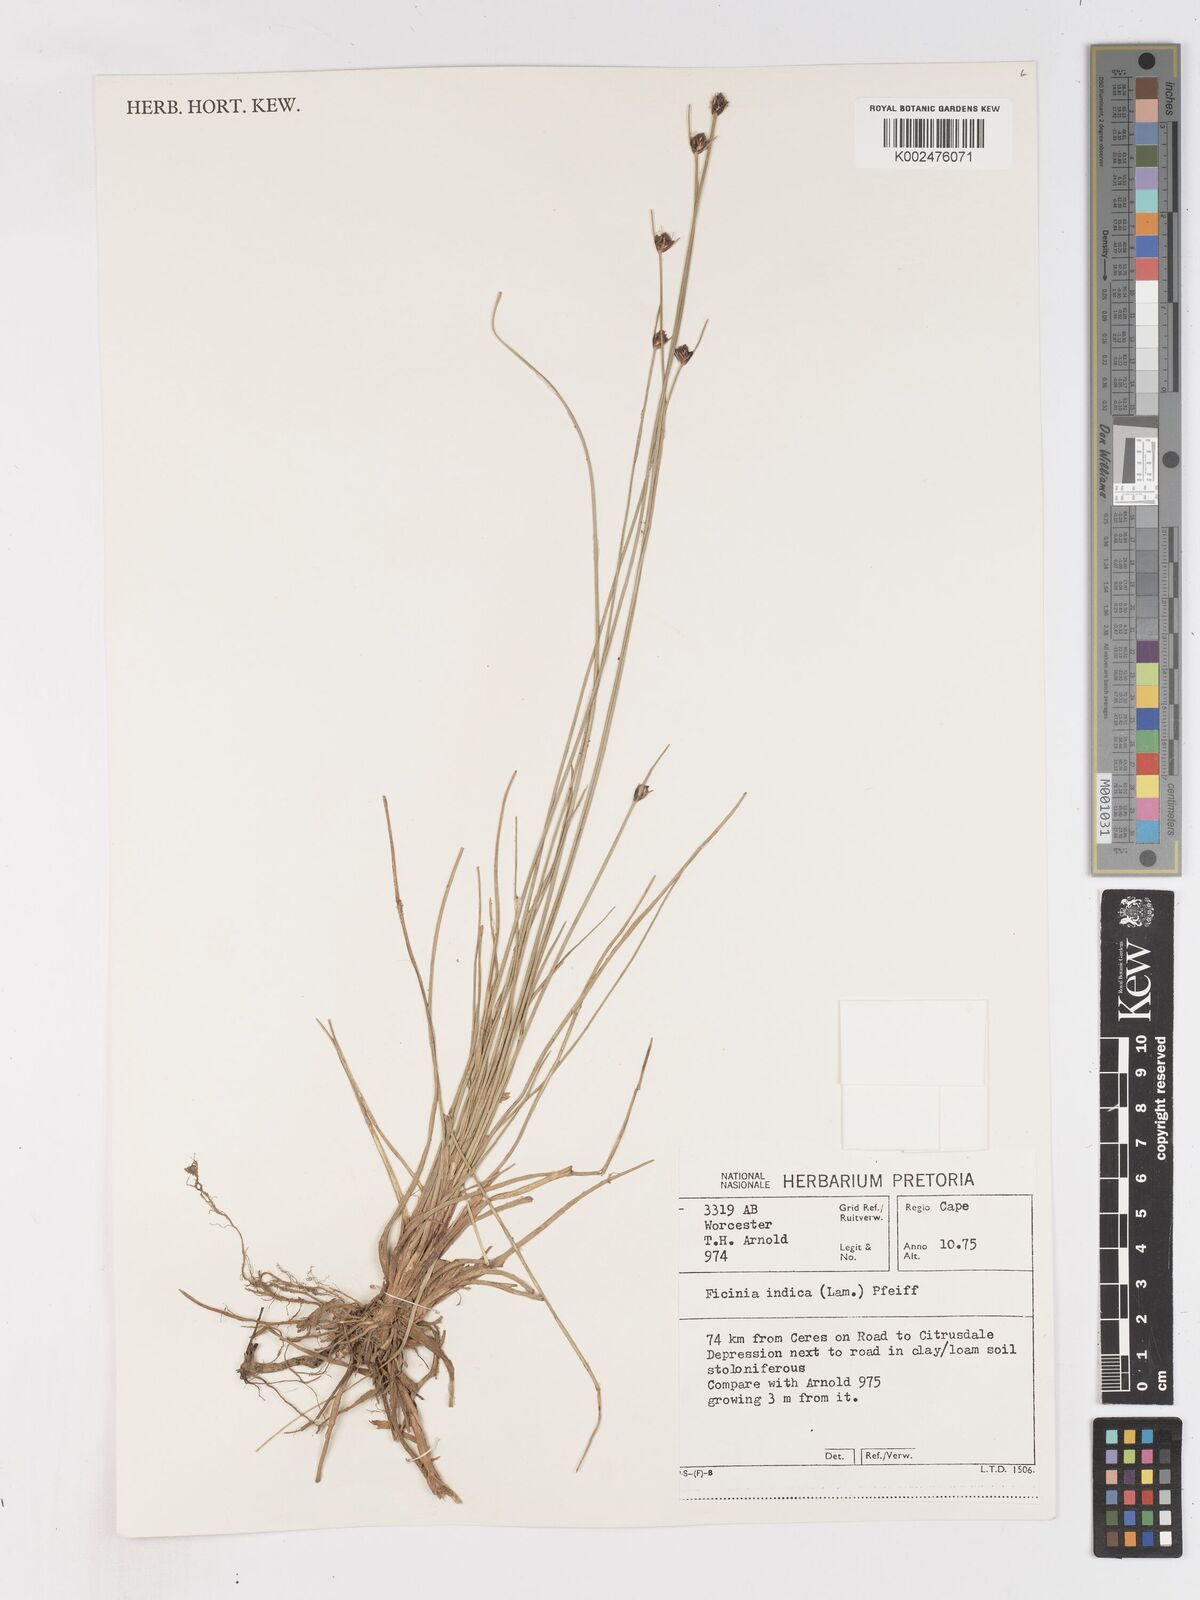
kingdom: Plantae
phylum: Tracheophyta
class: Liliopsida
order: Poales
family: Cyperaceae
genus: Ficinia
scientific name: Ficinia indica
